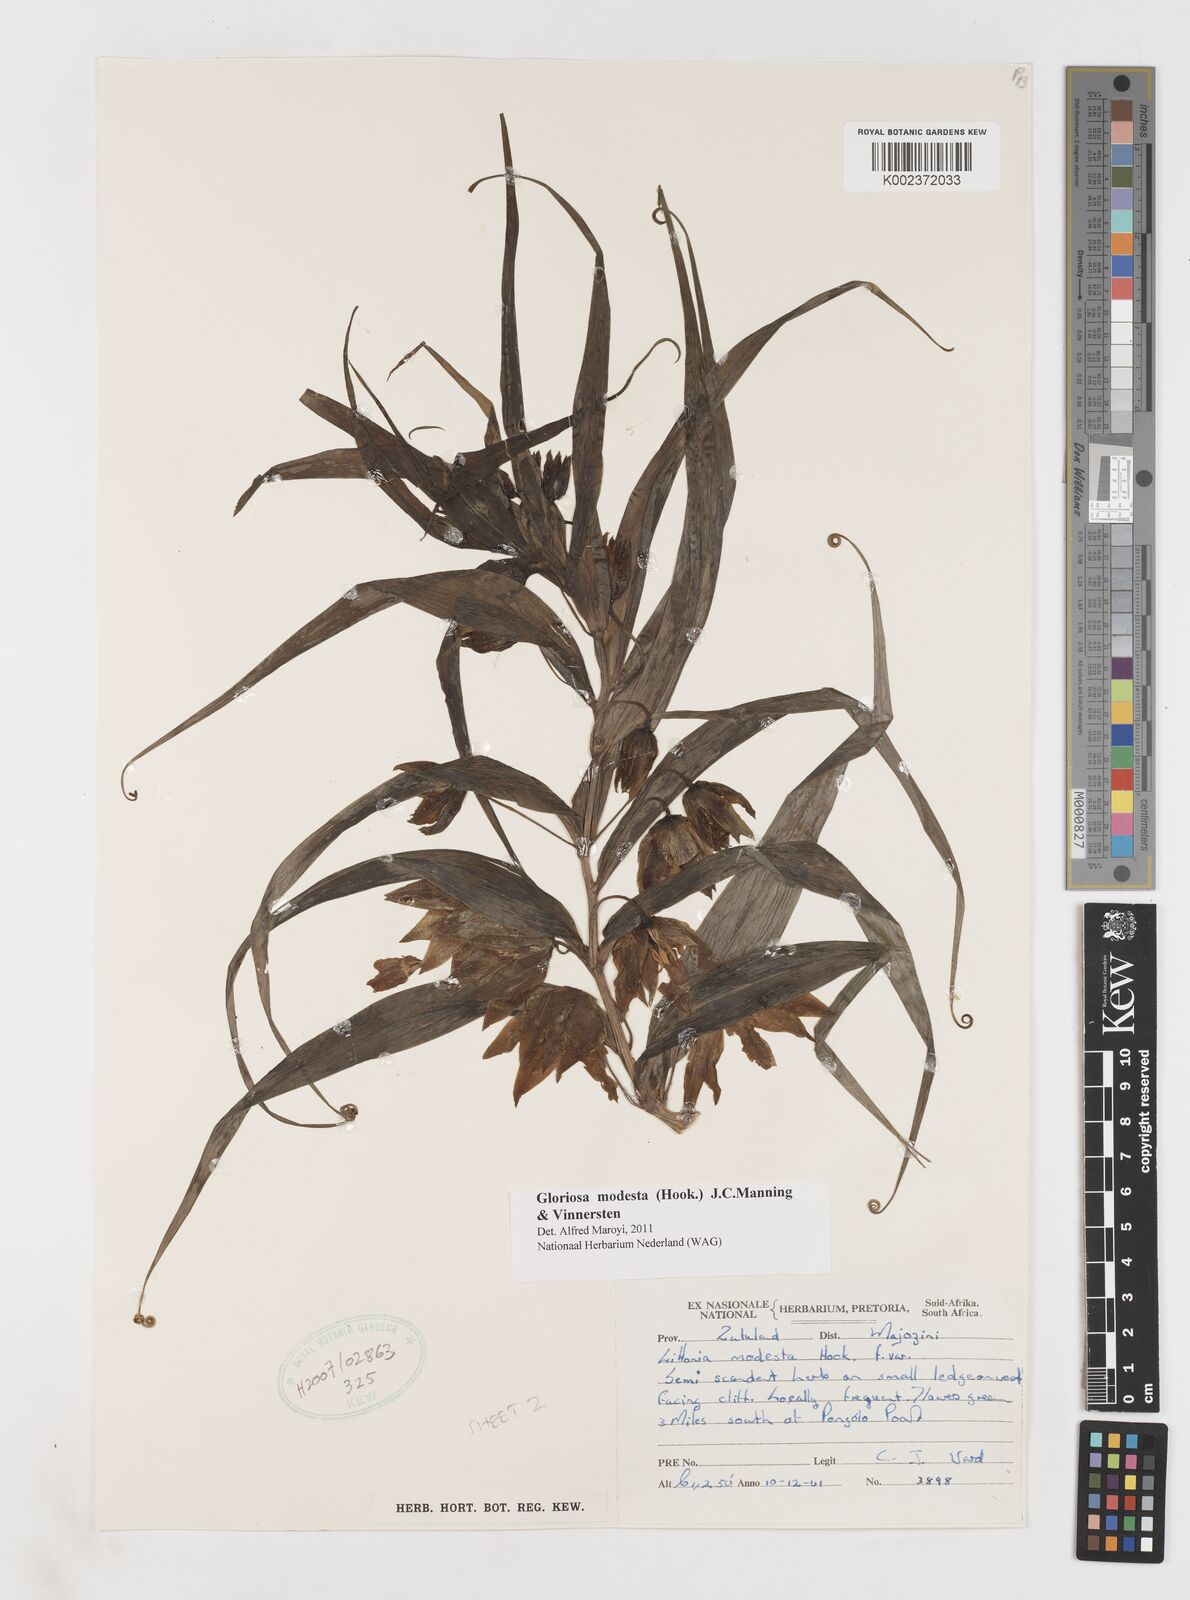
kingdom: Plantae
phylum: Tracheophyta
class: Liliopsida
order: Liliales
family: Colchicaceae
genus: Gloriosa
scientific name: Gloriosa modesta
